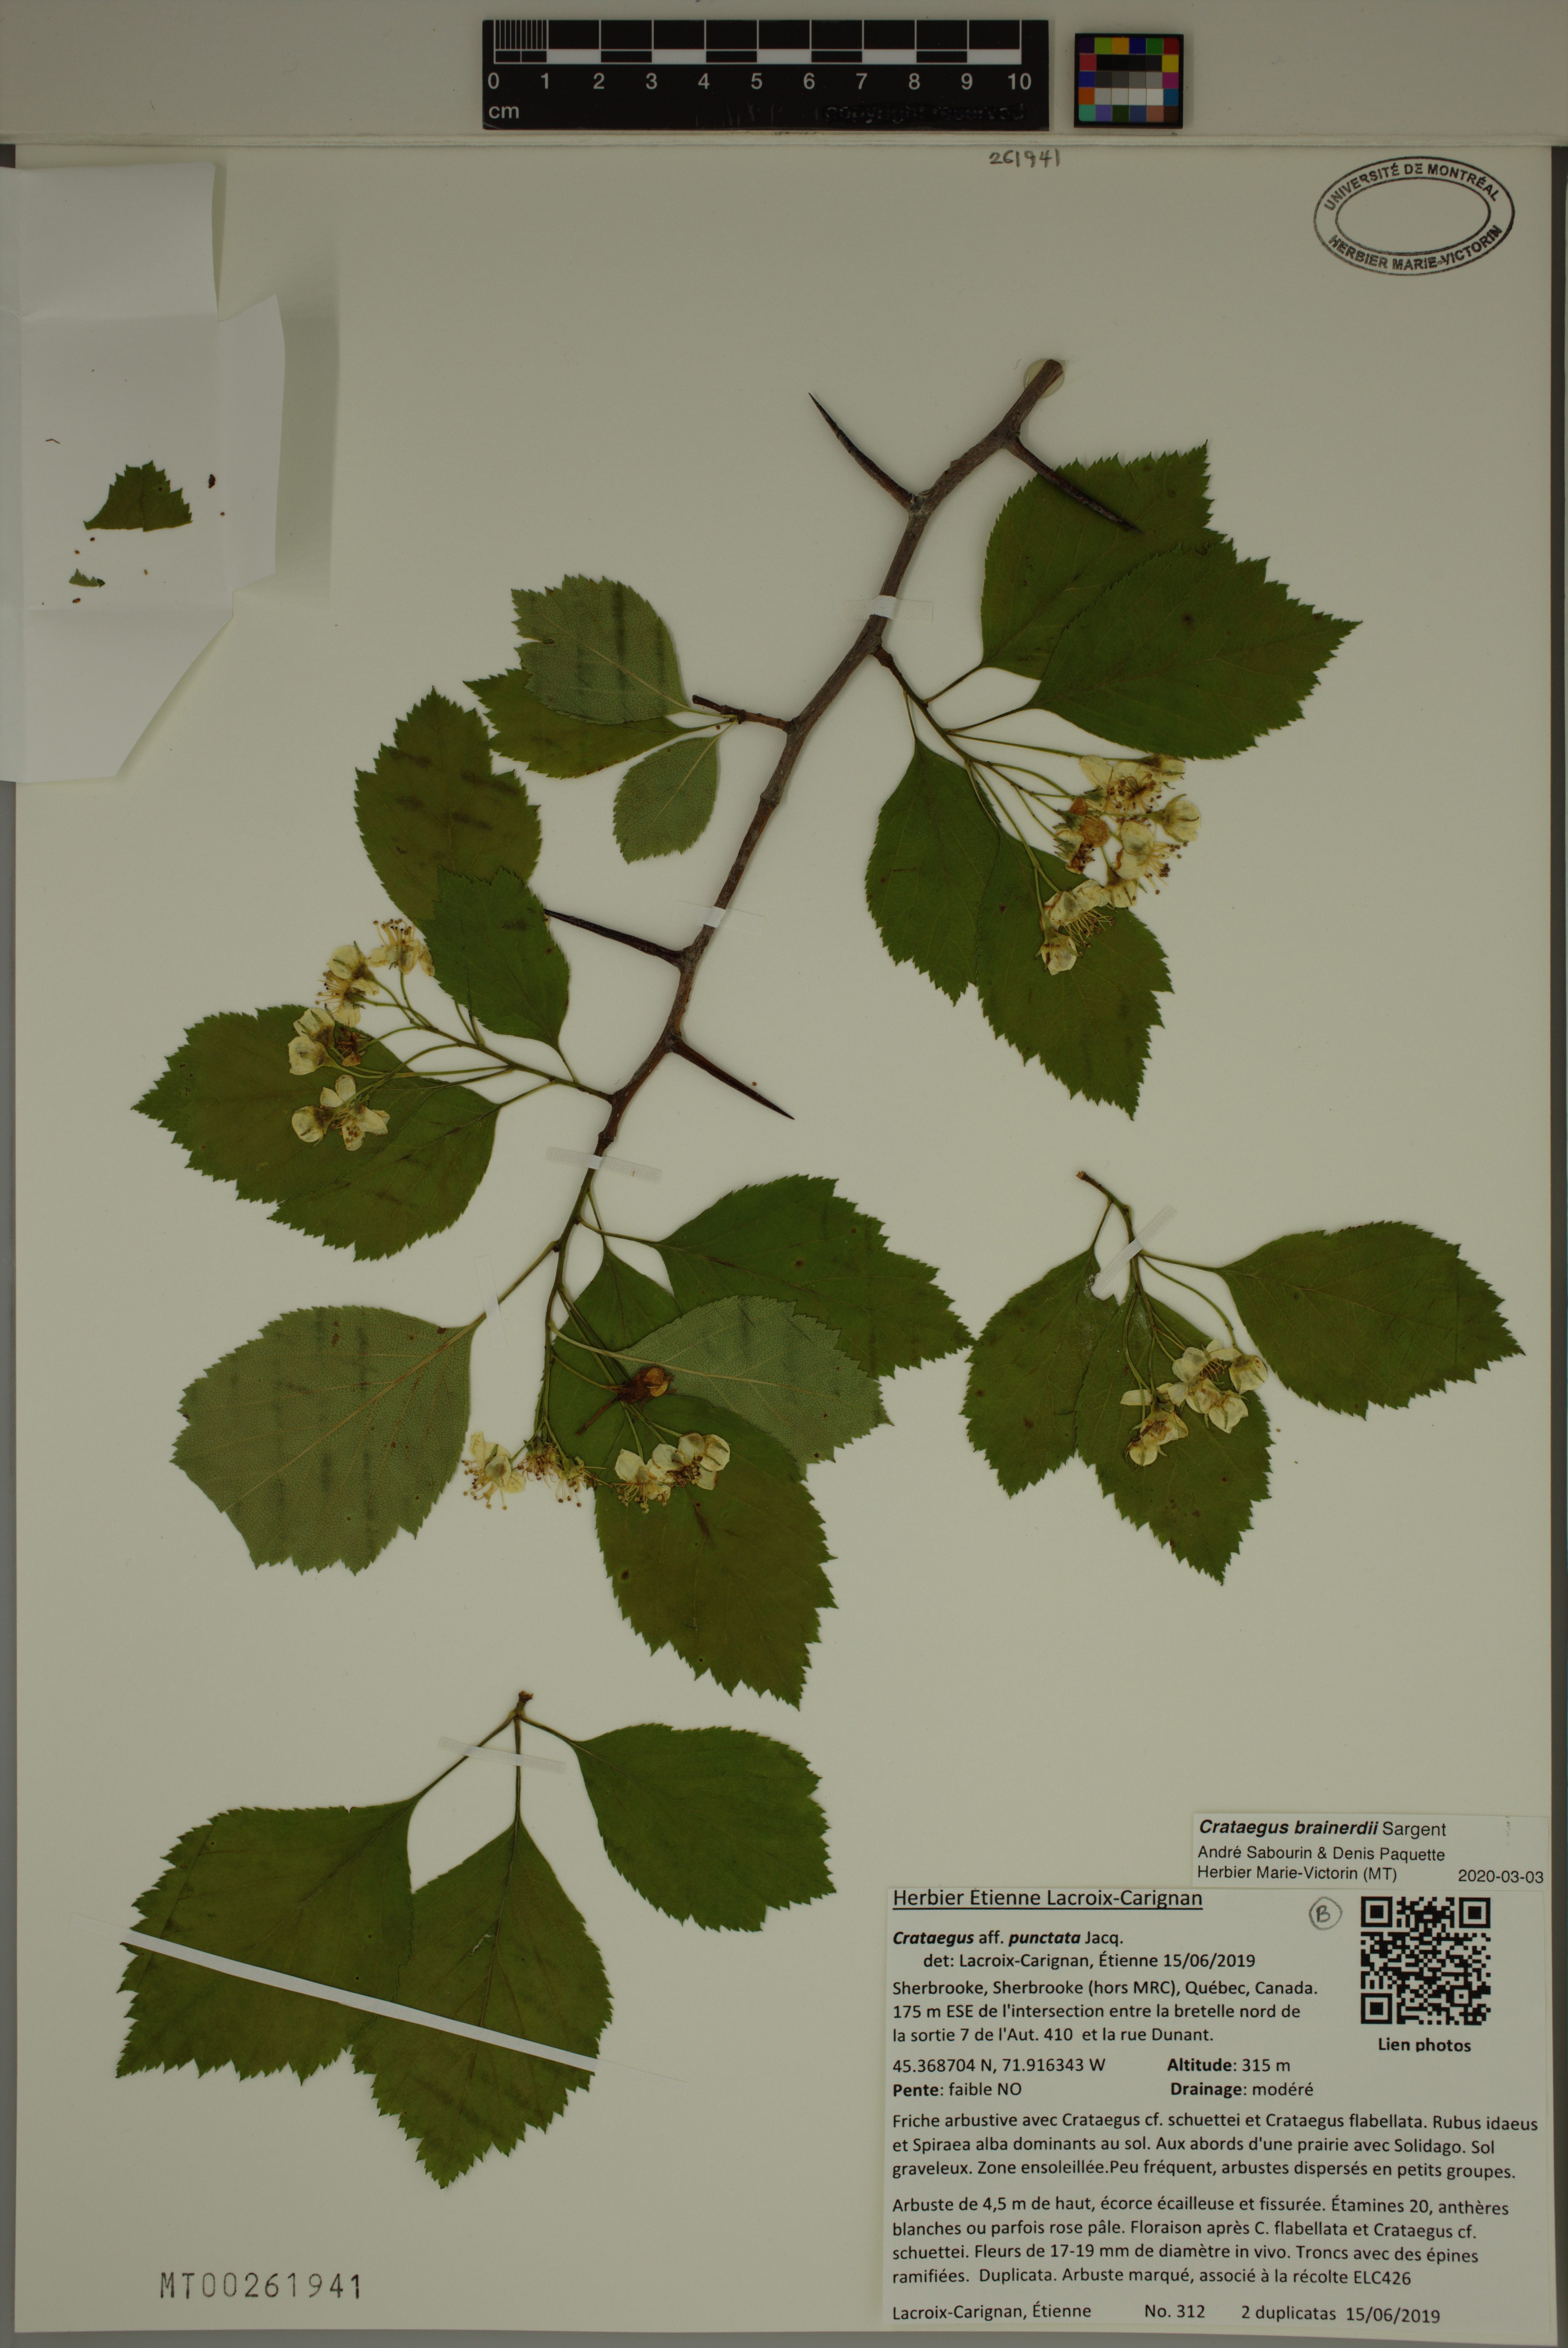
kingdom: Plantae
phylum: Tracheophyta
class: Magnoliopsida
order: Rosales
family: Rosaceae
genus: Crataegus
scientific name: Crataegus scabrida
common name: Rough hawthorn
